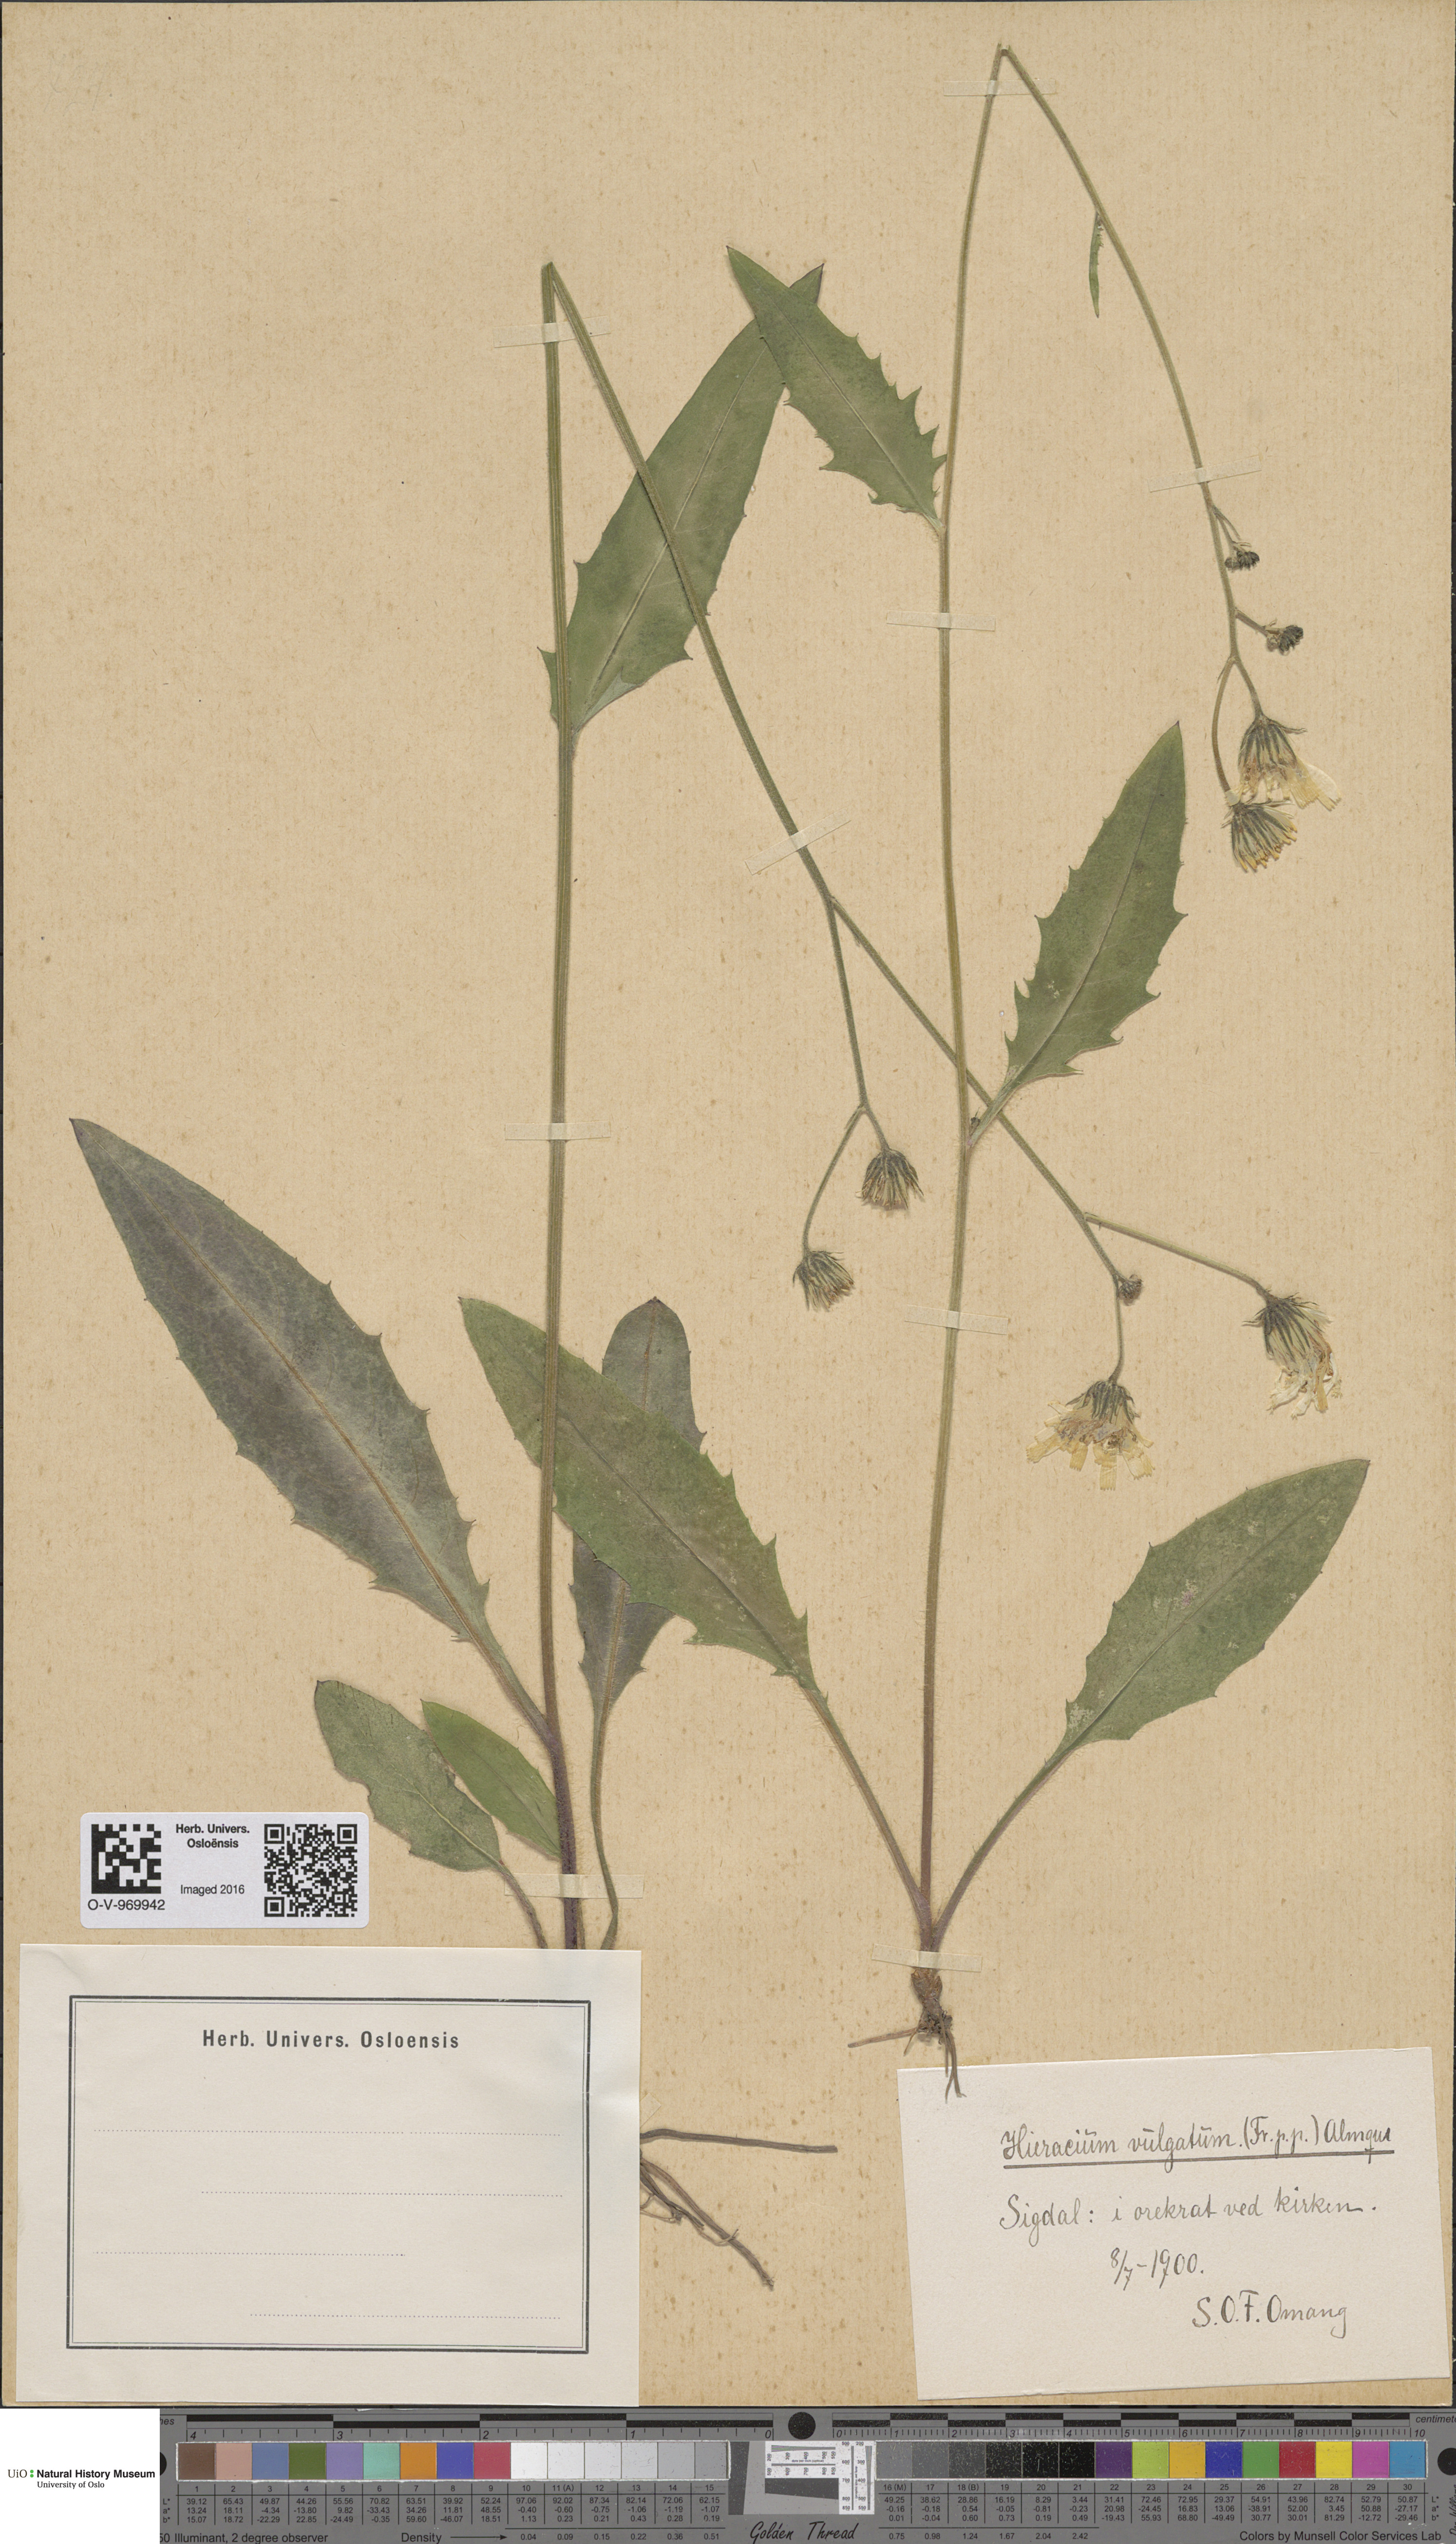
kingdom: Plantae
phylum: Tracheophyta
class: Magnoliopsida
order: Asterales
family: Asteraceae
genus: Hieracium
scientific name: Hieracium vulgatum
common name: Common hawkweed
